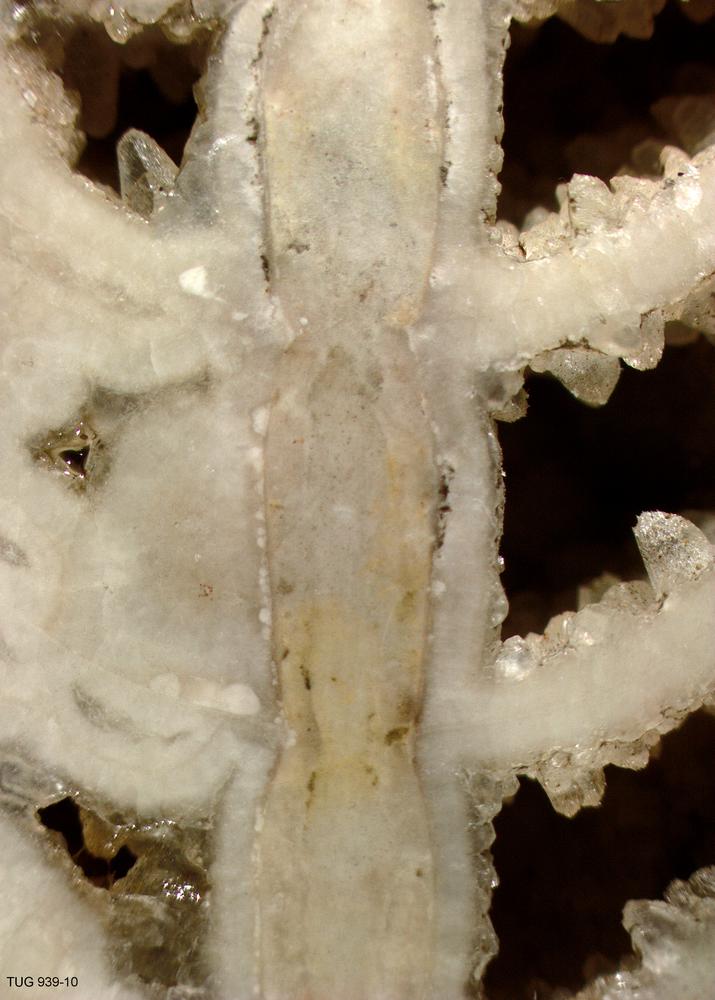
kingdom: Animalia
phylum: Mollusca
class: Cephalopoda
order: Orthocerida
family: Geisonoceratidae
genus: Ordogeisonoceras
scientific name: Ordogeisonoceras tartuensis
